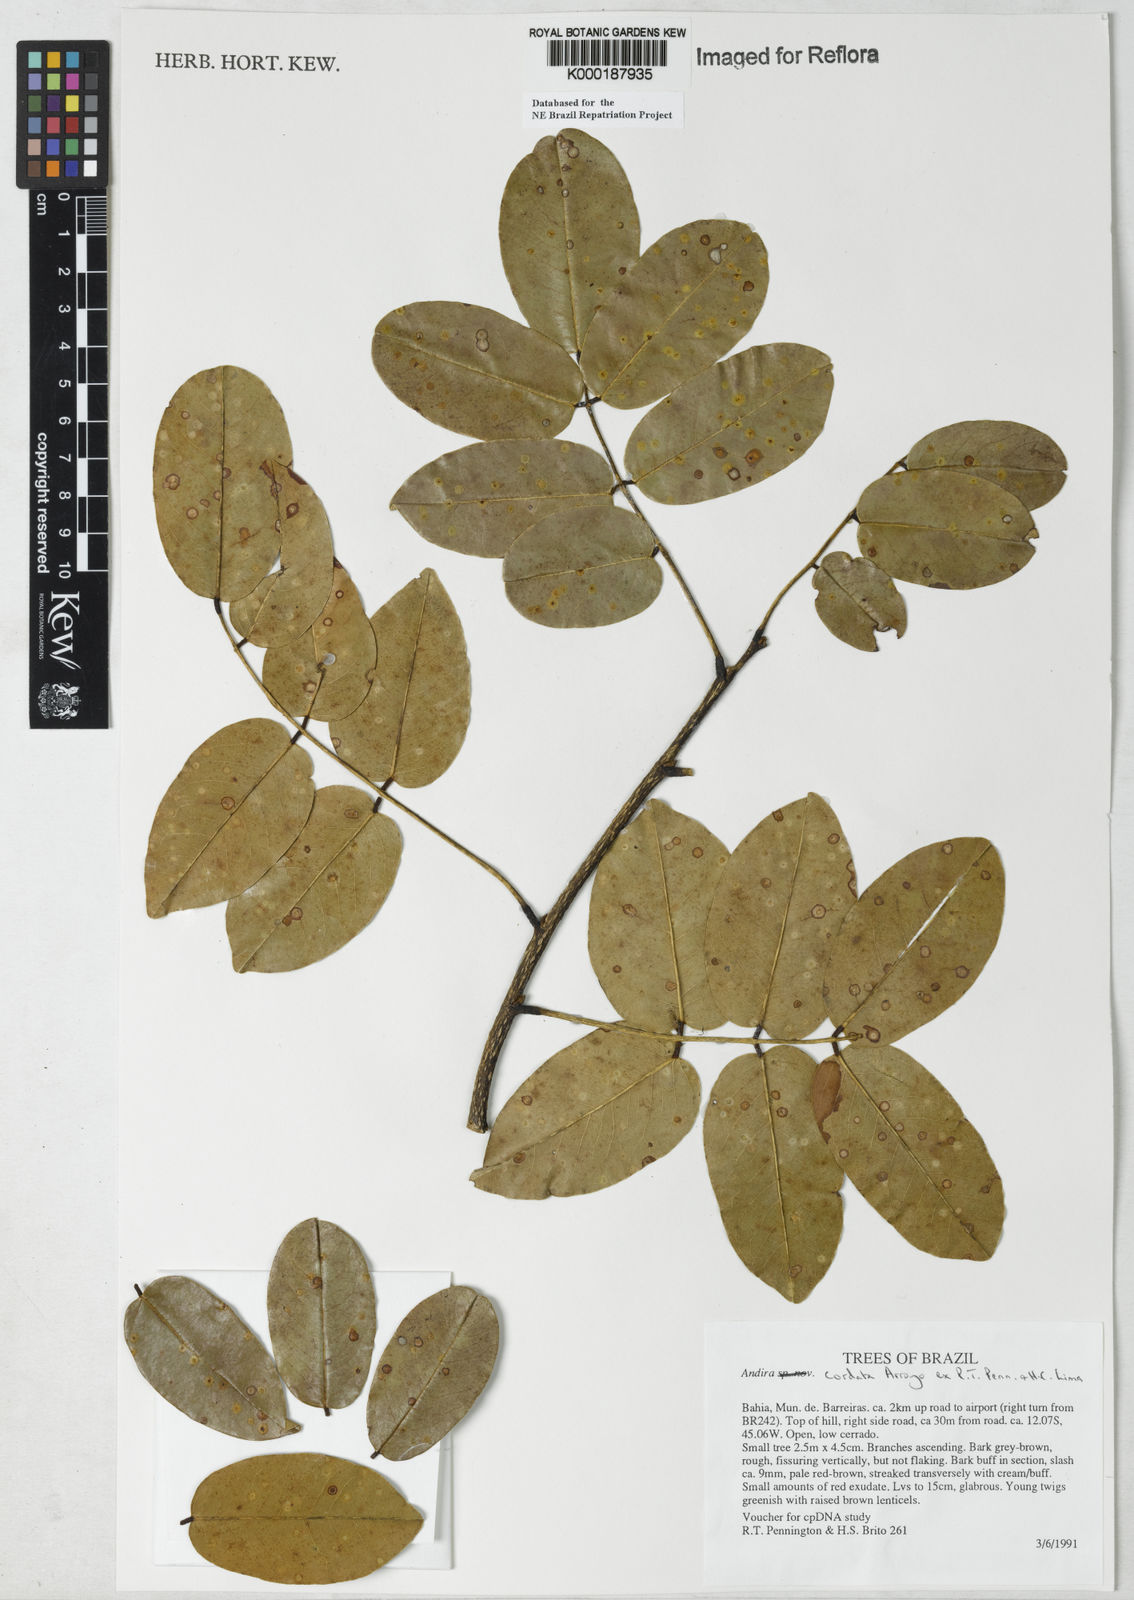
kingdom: Plantae
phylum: Tracheophyta
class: Magnoliopsida
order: Fabales
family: Fabaceae
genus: Andira
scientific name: Andira cordata
